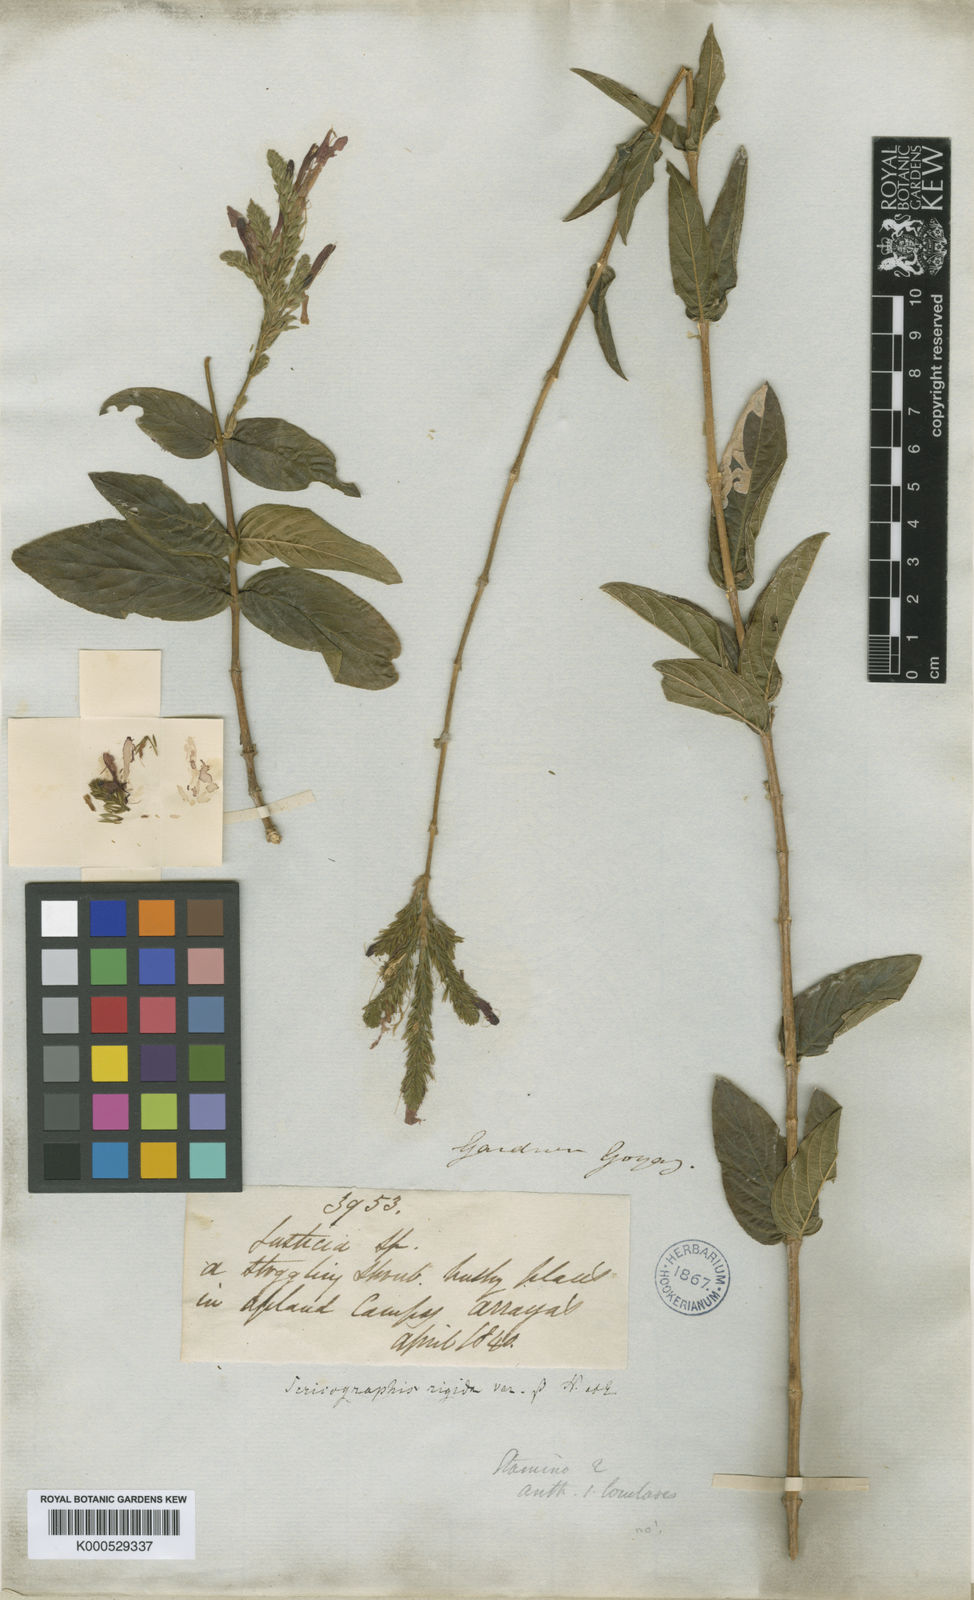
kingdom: Plantae
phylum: Tracheophyta
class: Magnoliopsida
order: Lamiales
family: Acanthaceae
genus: Dianthera
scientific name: Dianthera rigida
